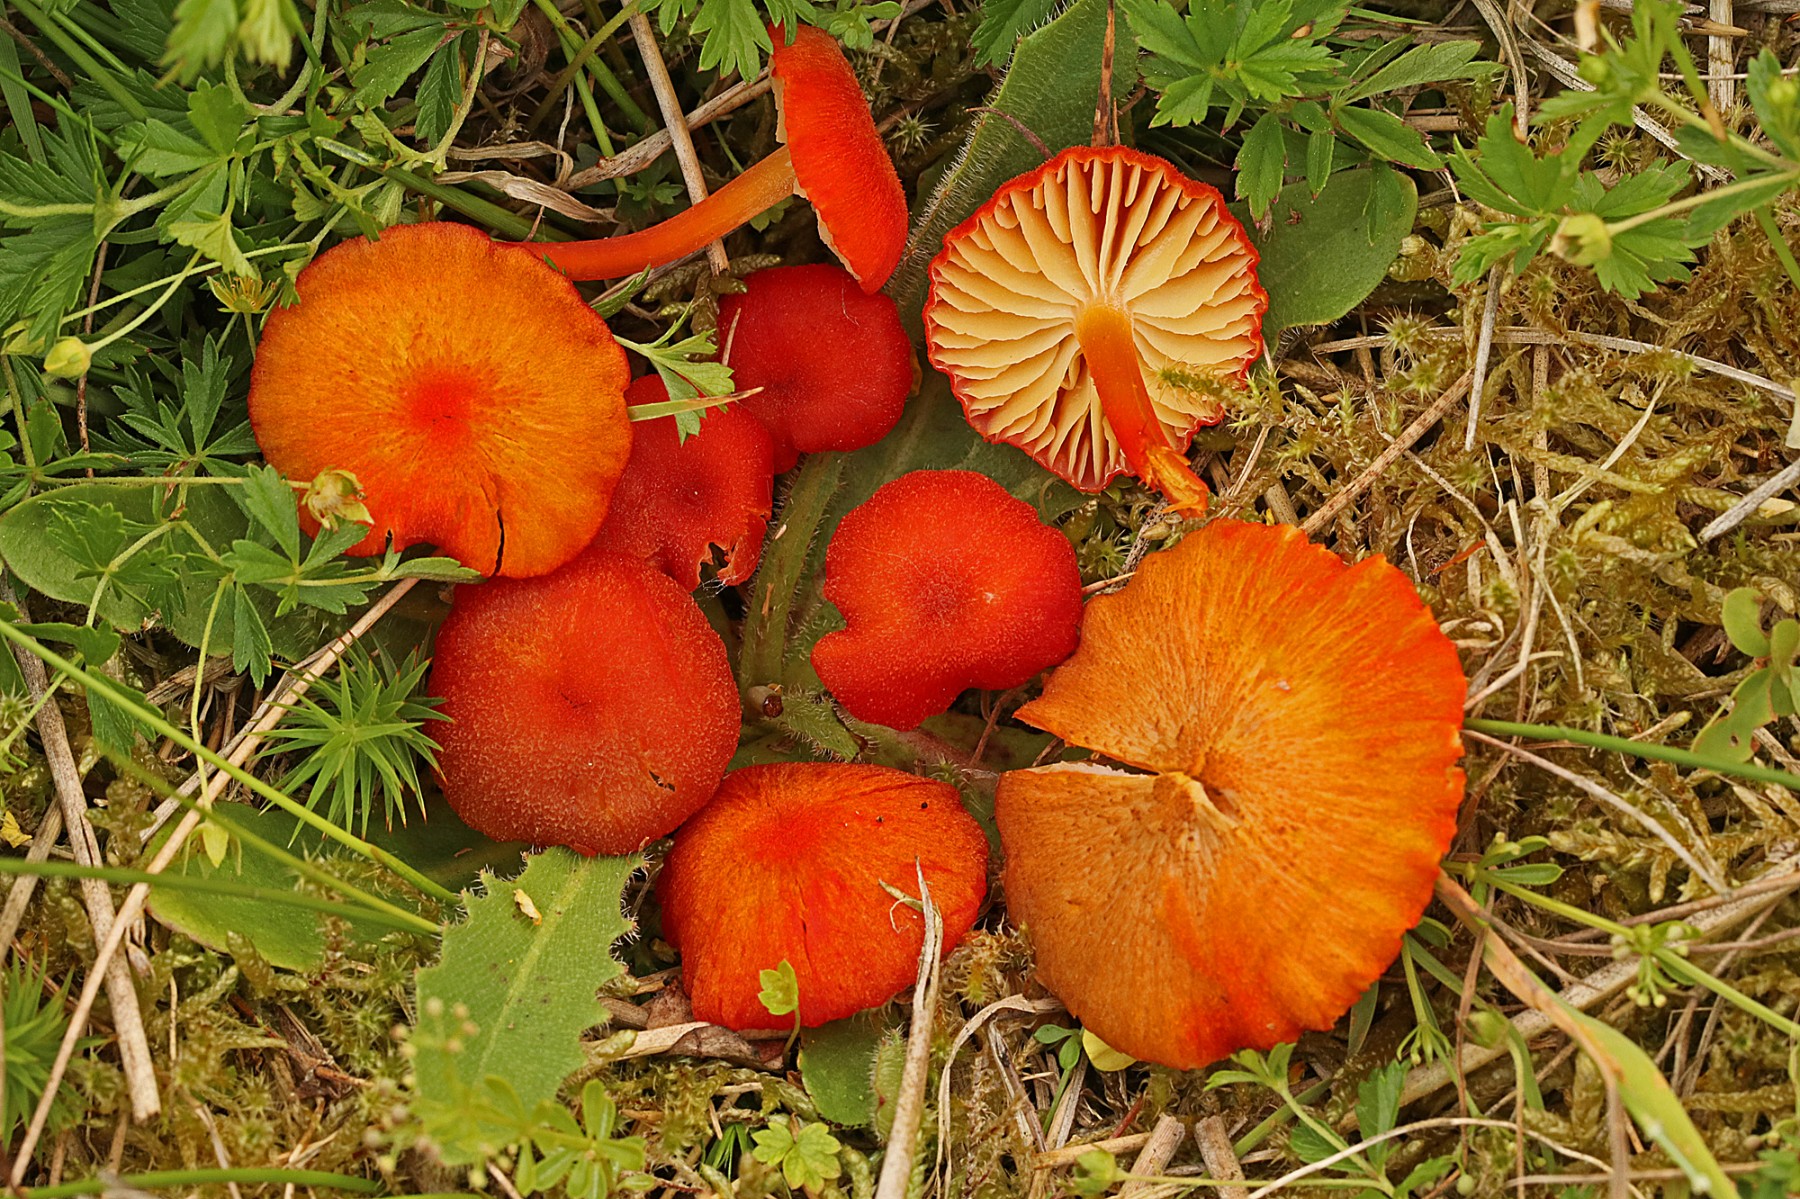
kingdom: Fungi
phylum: Basidiomycota
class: Agaricomycetes
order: Agaricales
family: Hygrophoraceae
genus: Hygrocybe
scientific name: Hygrocybe helobia
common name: hvidløgs-vokshat
